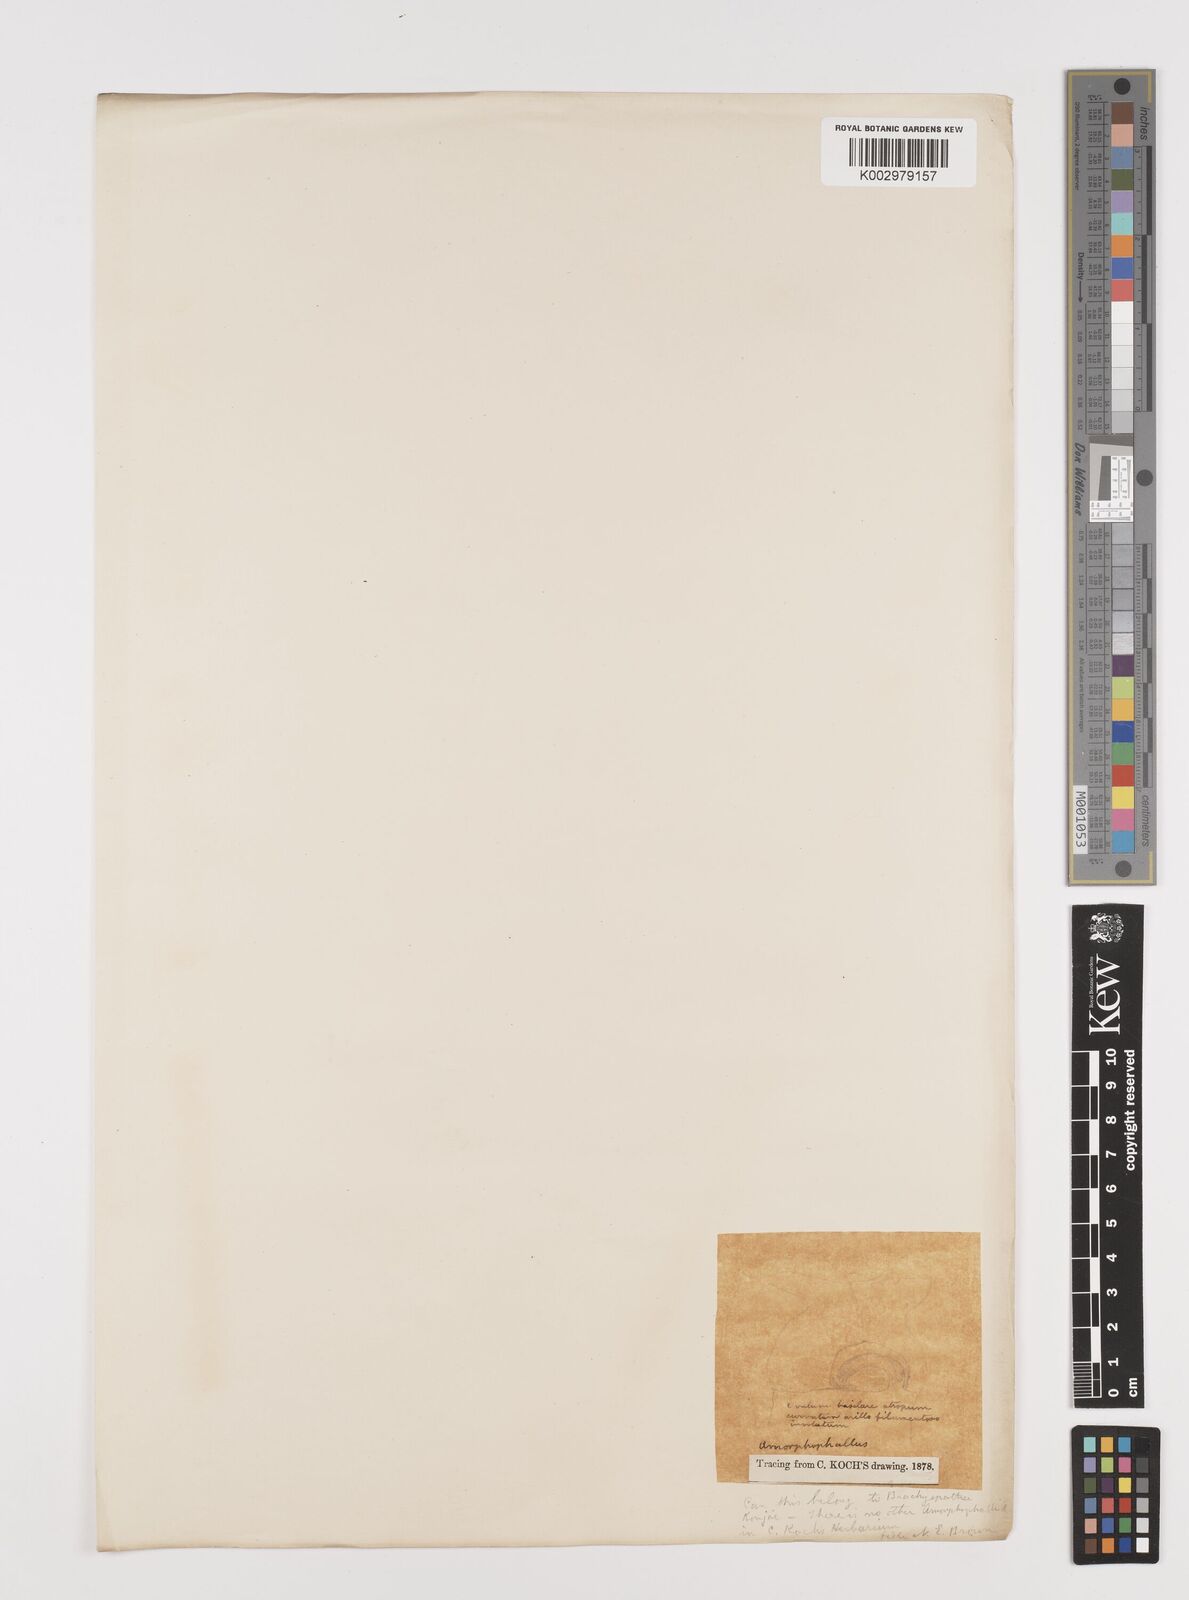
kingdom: Plantae
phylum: Tracheophyta
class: Liliopsida
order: Alismatales
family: Araceae
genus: Amorphophallus
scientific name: Amorphophallus konjac
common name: Umbrella arum
